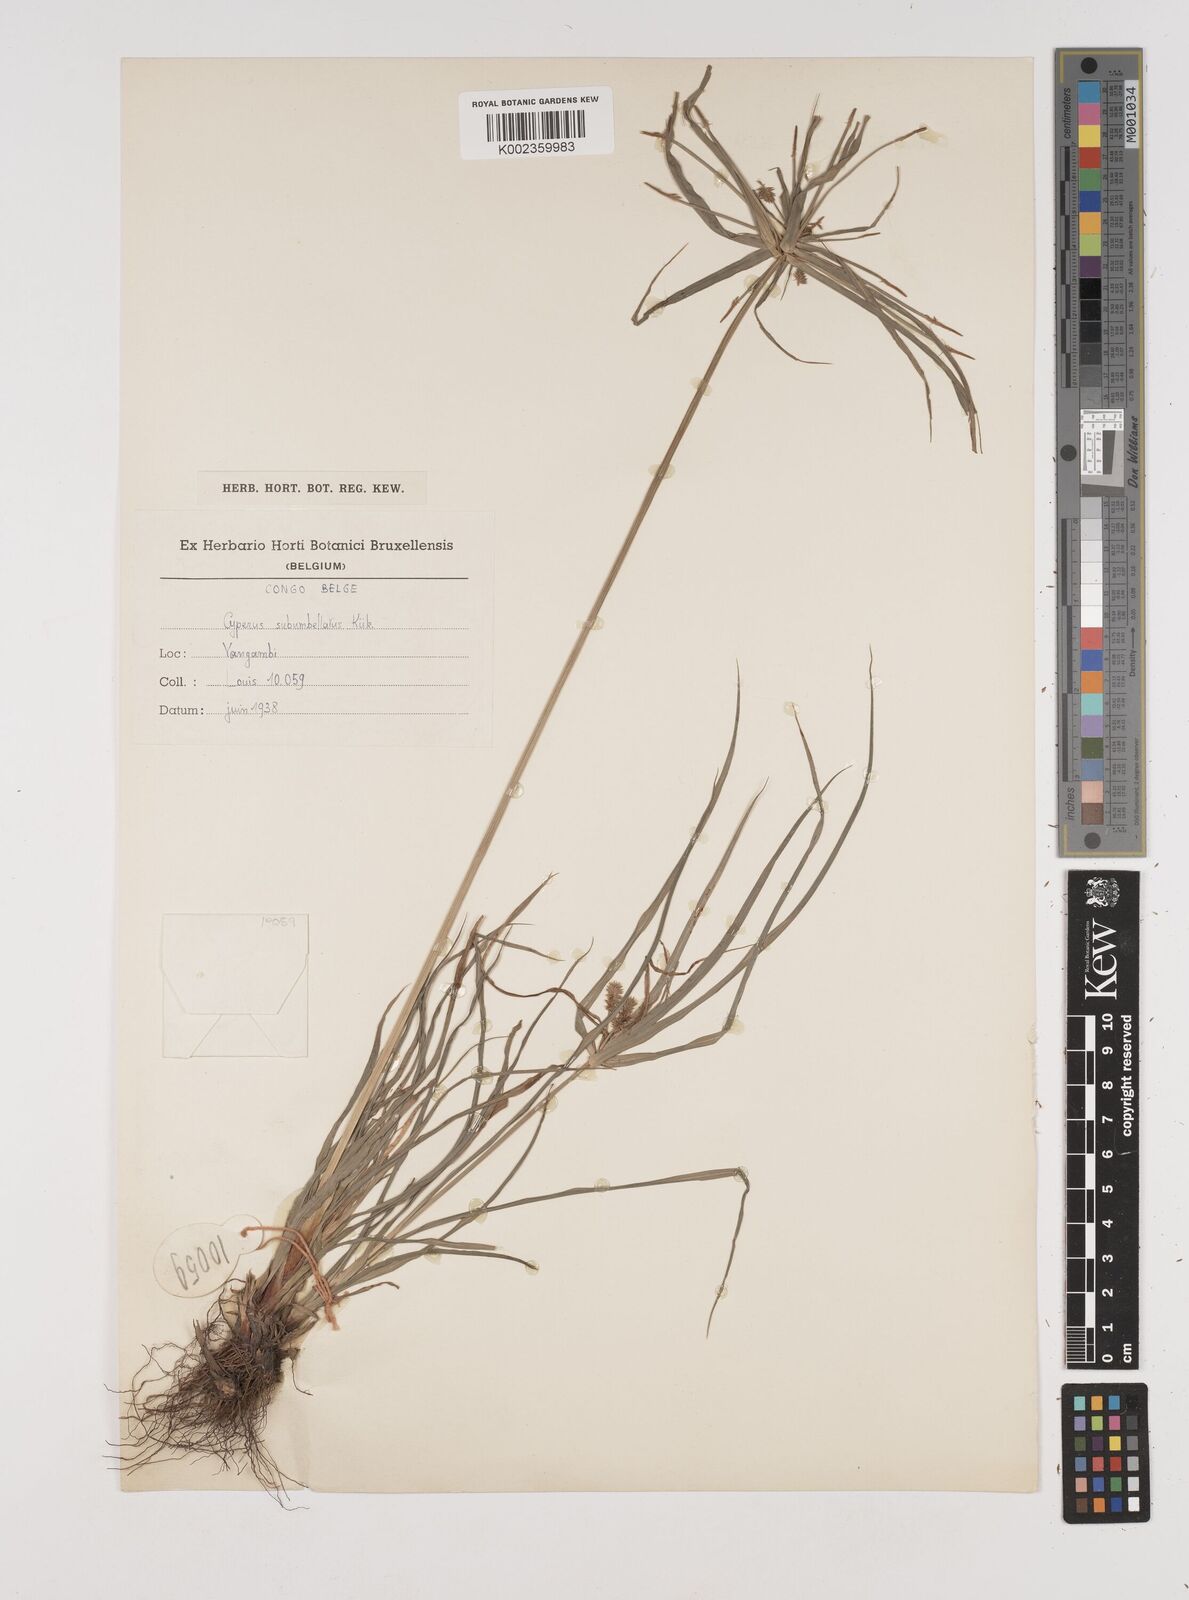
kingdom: Plantae
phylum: Tracheophyta
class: Liliopsida
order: Poales
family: Cyperaceae
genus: Cyperus
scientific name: Cyperus cyperoides
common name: Pacific island flat sedge
